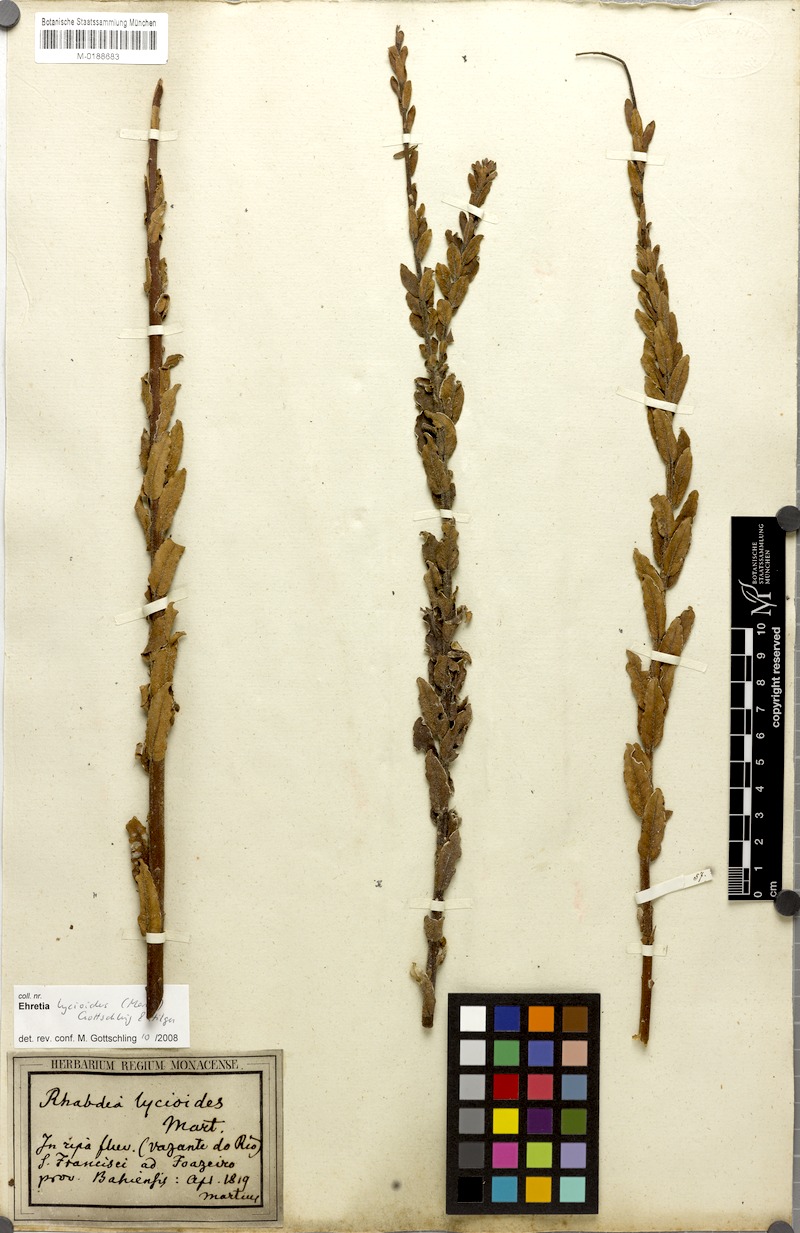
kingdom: Plantae
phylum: Tracheophyta
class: Magnoliopsida
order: Boraginales
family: Ehretiaceae
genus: Ehretia
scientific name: Ehretia lycioides
